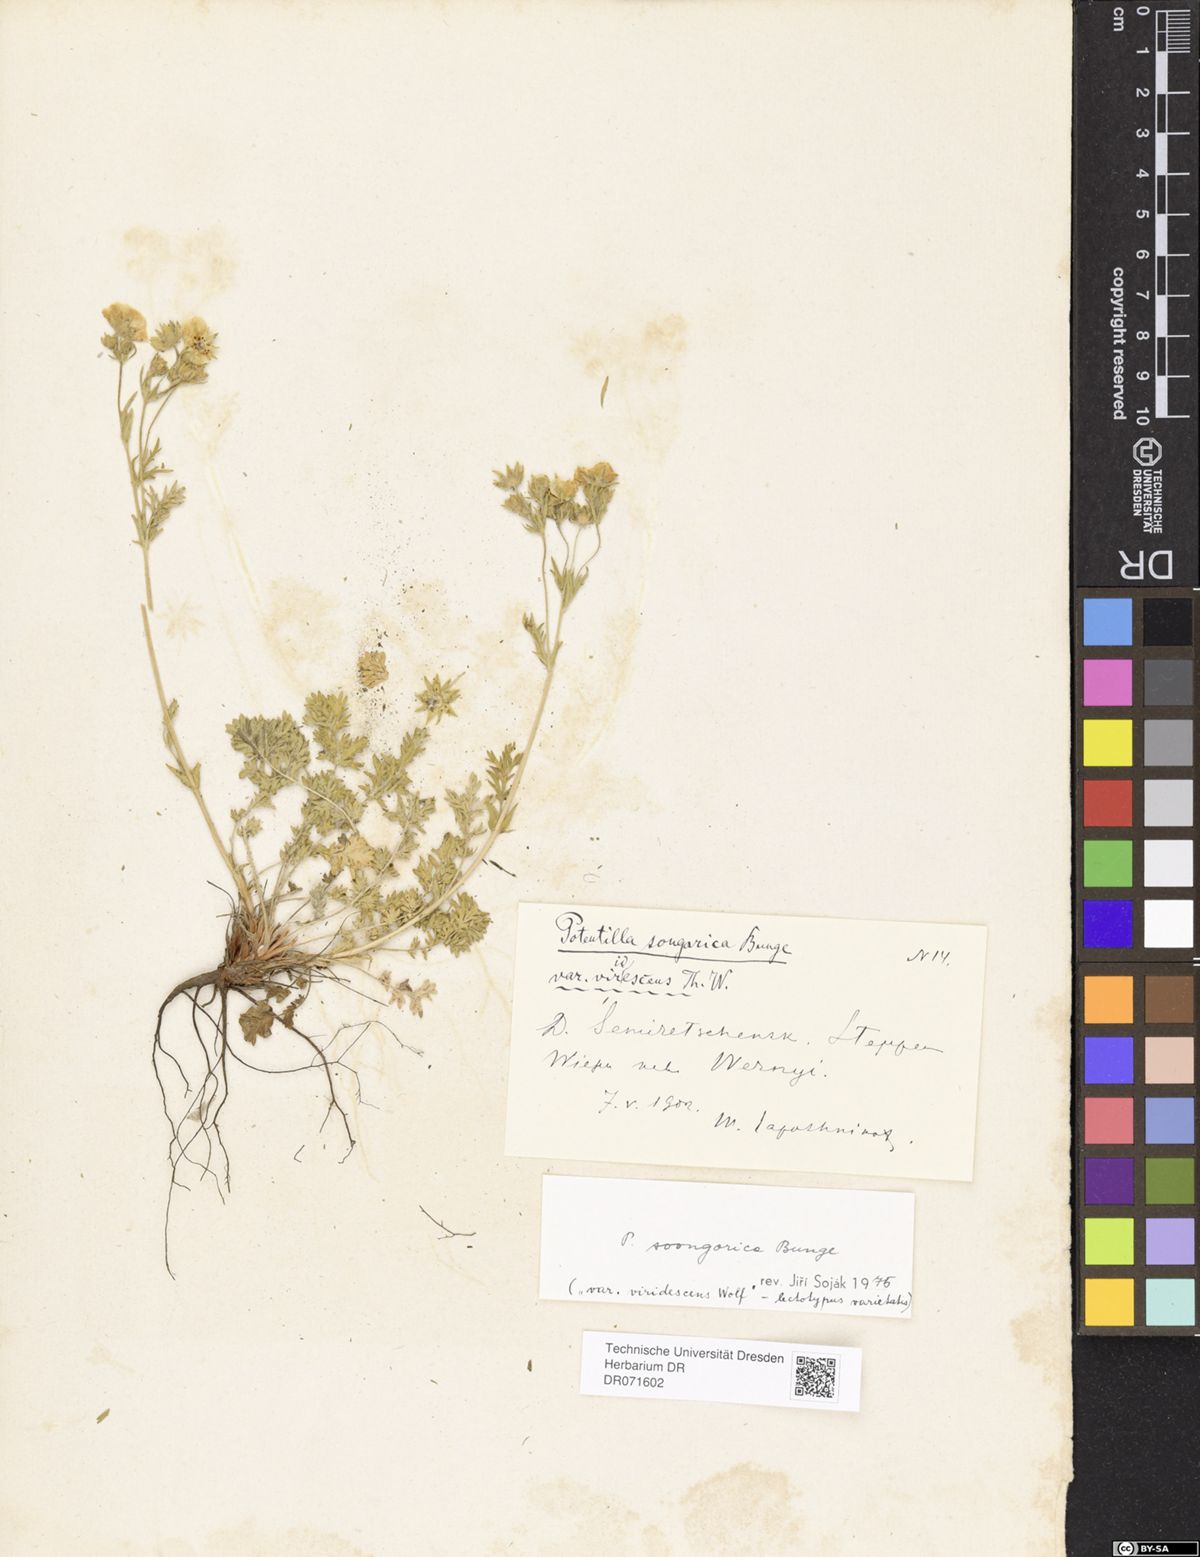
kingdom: Plantae
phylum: Tracheophyta
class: Magnoliopsida
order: Rosales
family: Rosaceae
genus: Potentilla
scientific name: Potentilla soongorica
